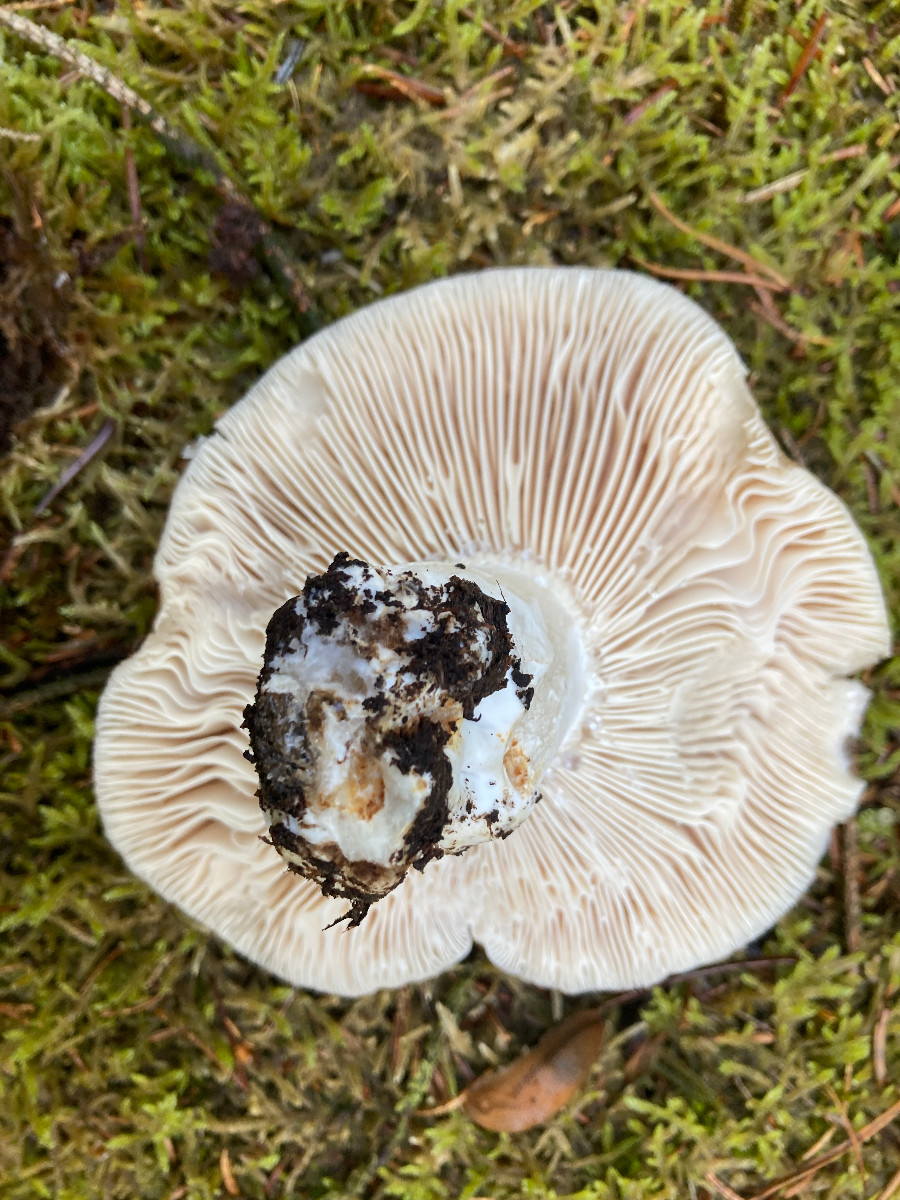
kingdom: Fungi
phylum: Basidiomycota
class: Agaricomycetes
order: Russulales
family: Russulaceae
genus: Russula
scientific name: Russula adusta
